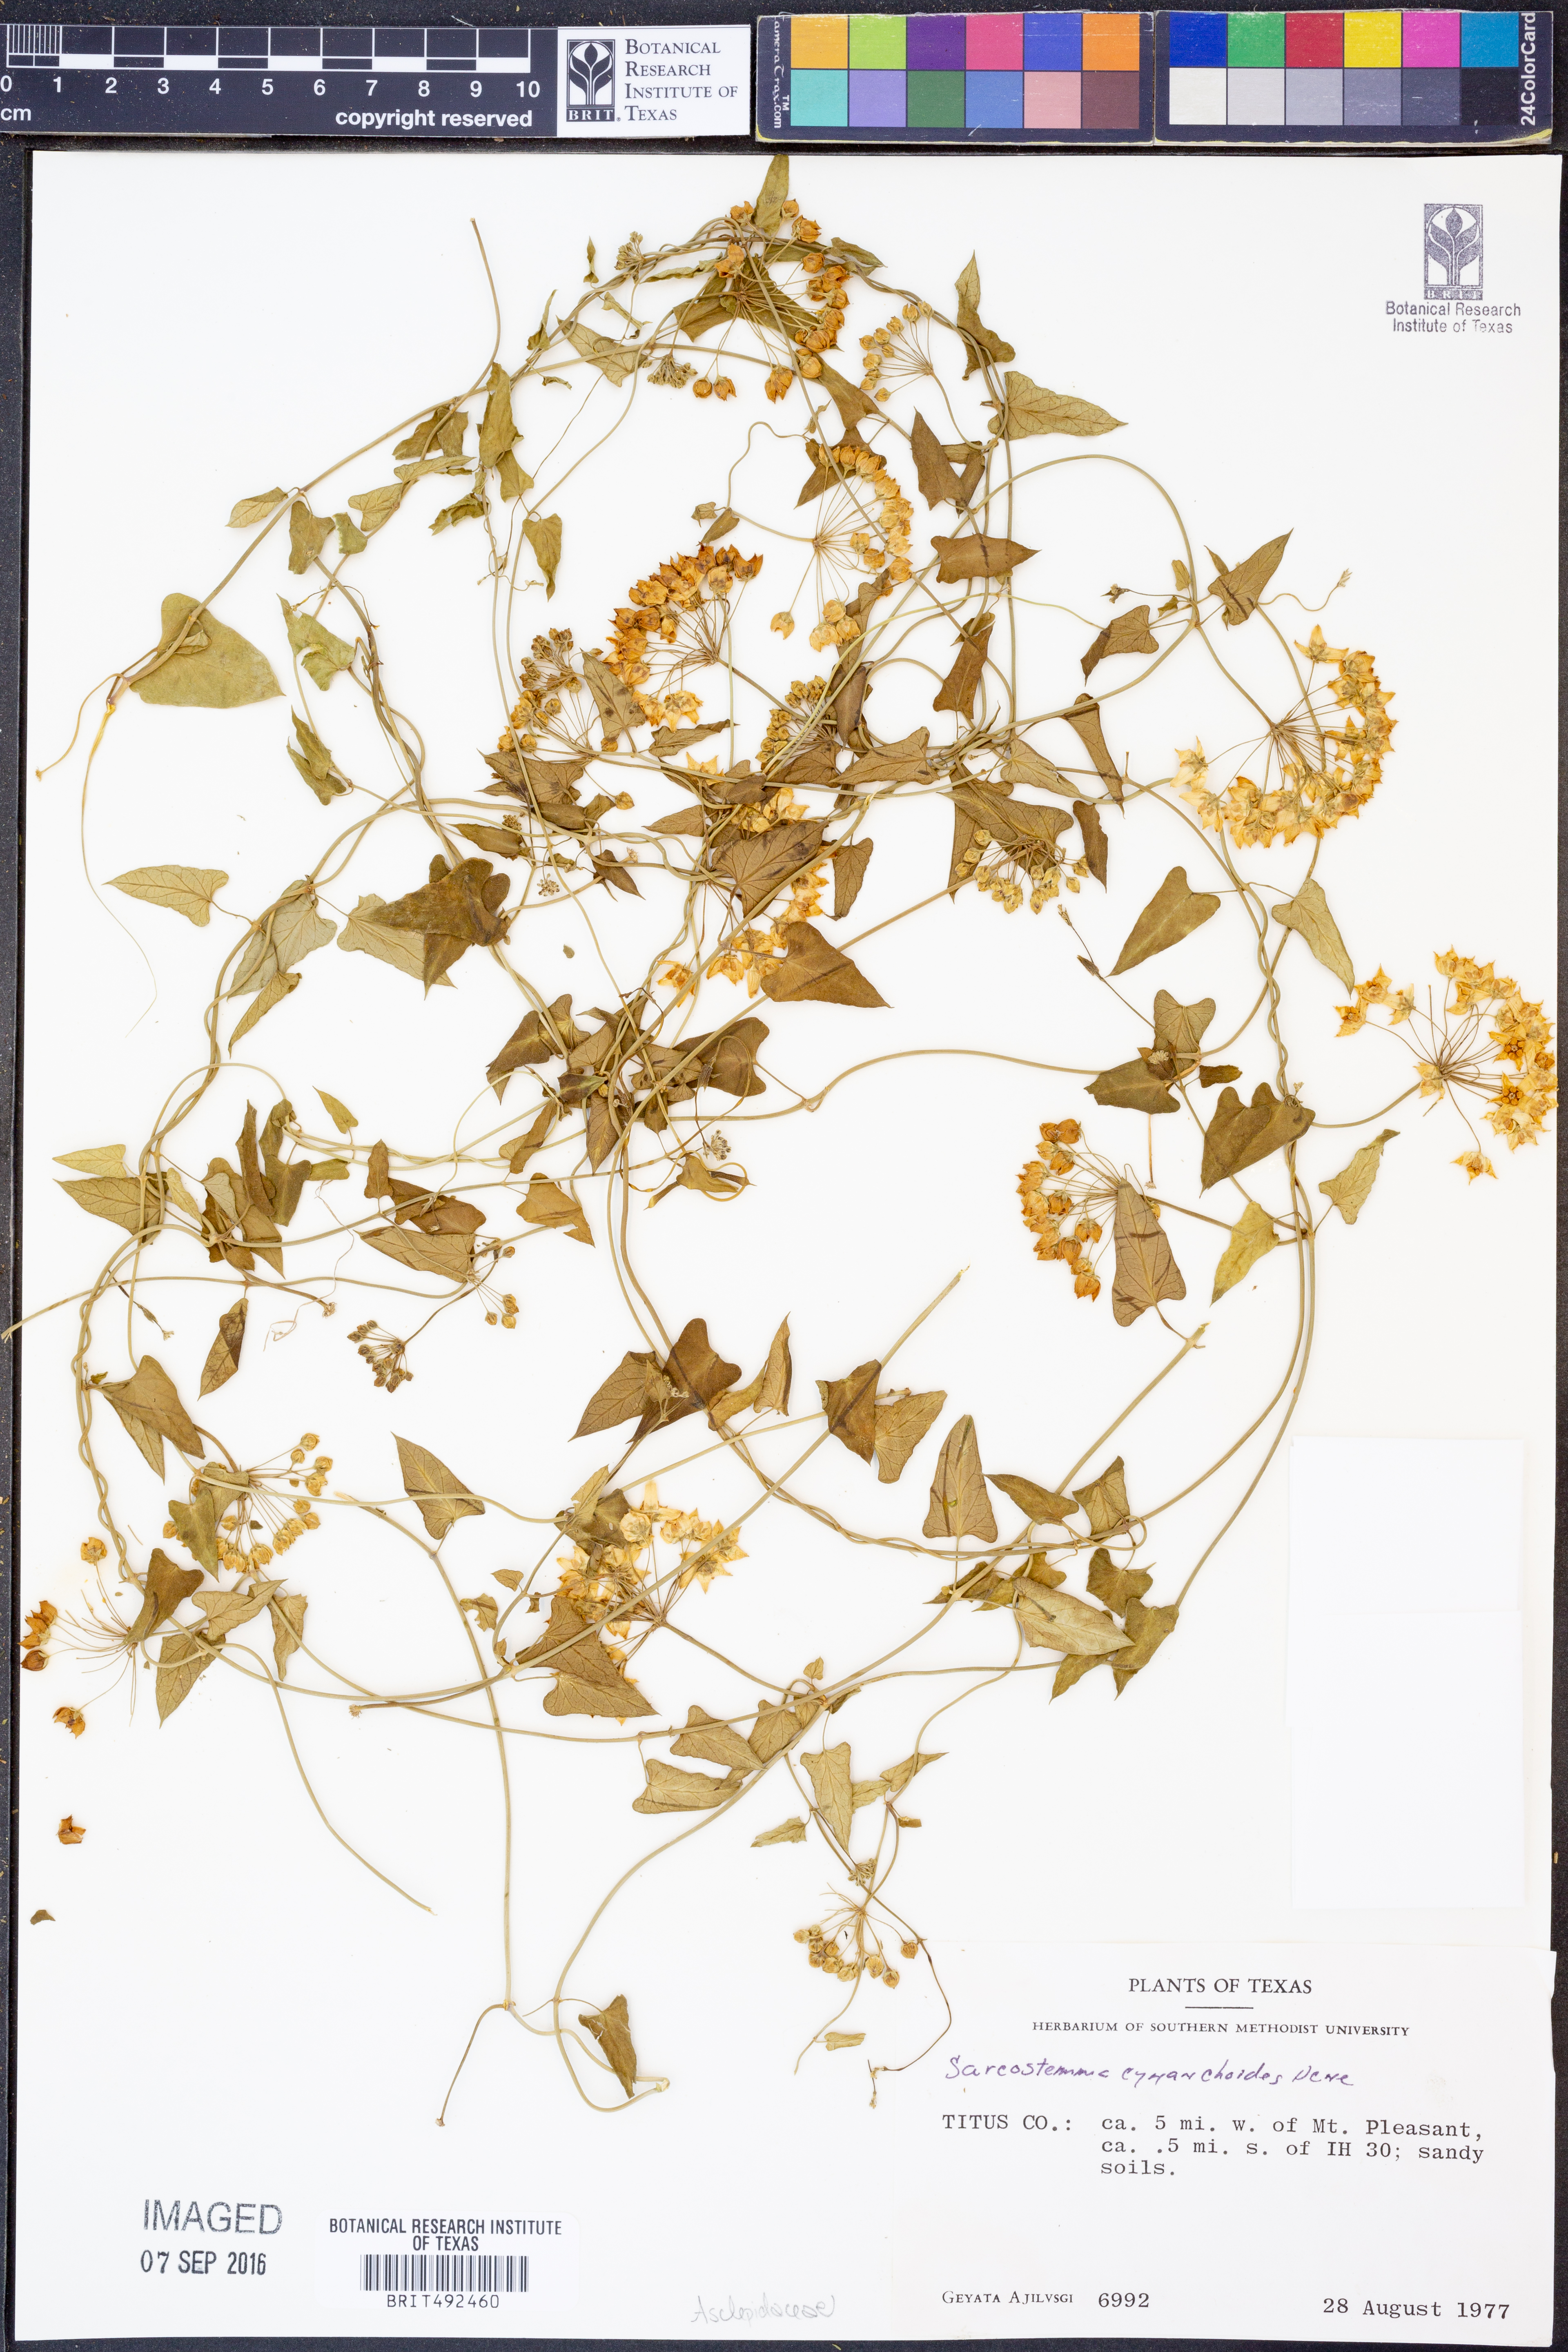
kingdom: Plantae
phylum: Tracheophyta
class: Magnoliopsida
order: Gentianales
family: Apocynaceae
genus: Funastrum
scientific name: Funastrum cynanchoides
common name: Climbing-milkweed
